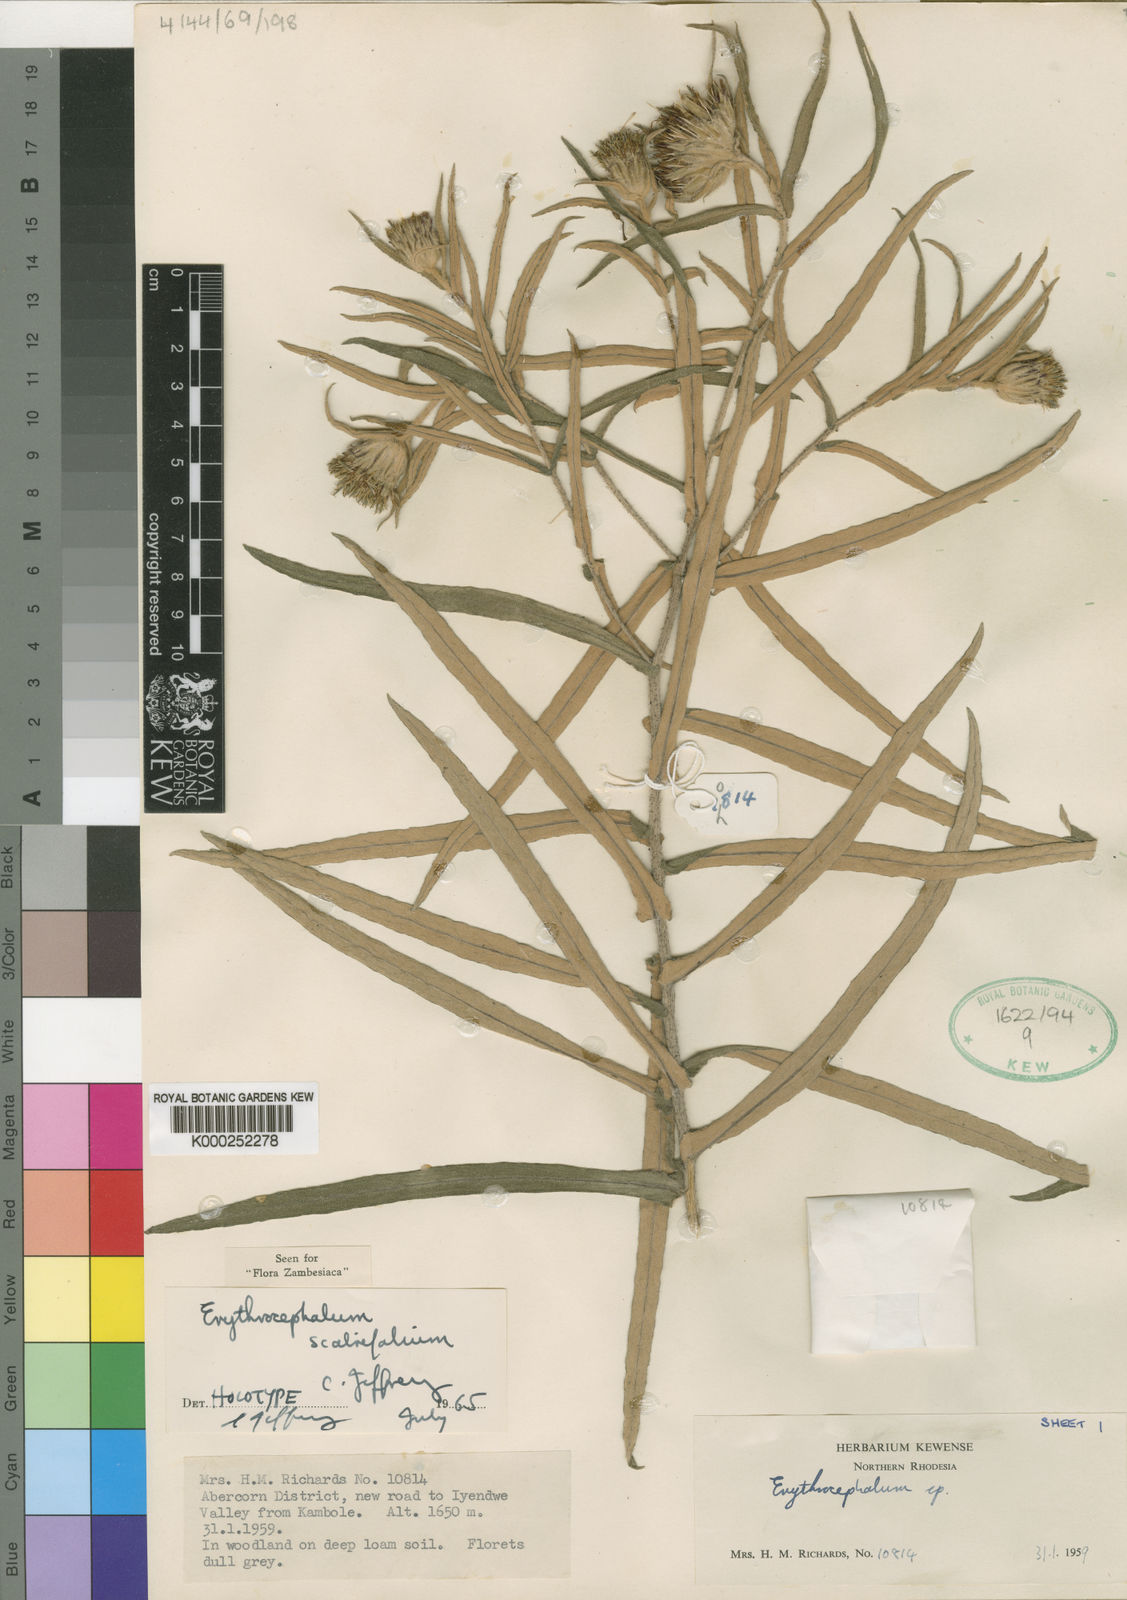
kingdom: Plantae
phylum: Tracheophyta
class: Magnoliopsida
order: Asterales
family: Asteraceae
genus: Erythrocephalum
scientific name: Erythrocephalum scabrifolium
